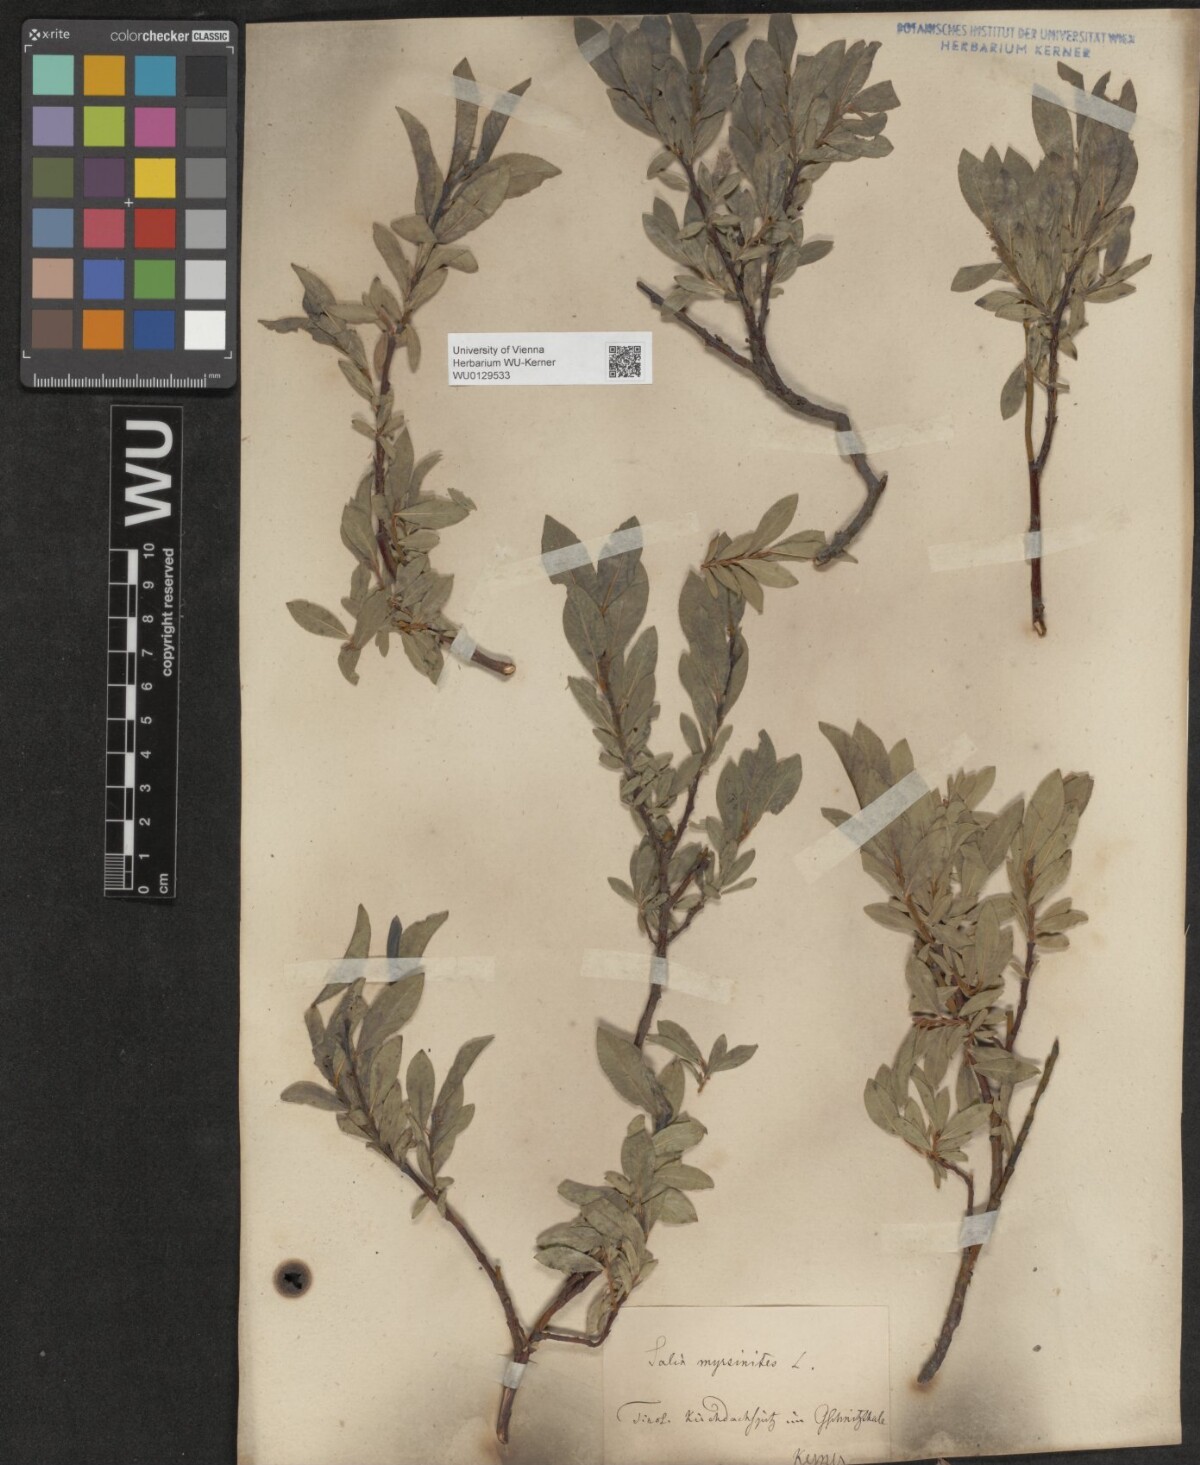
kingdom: Plantae
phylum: Tracheophyta
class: Magnoliopsida
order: Malpighiales
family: Salicaceae
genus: Salix
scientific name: Salix breviserrata
